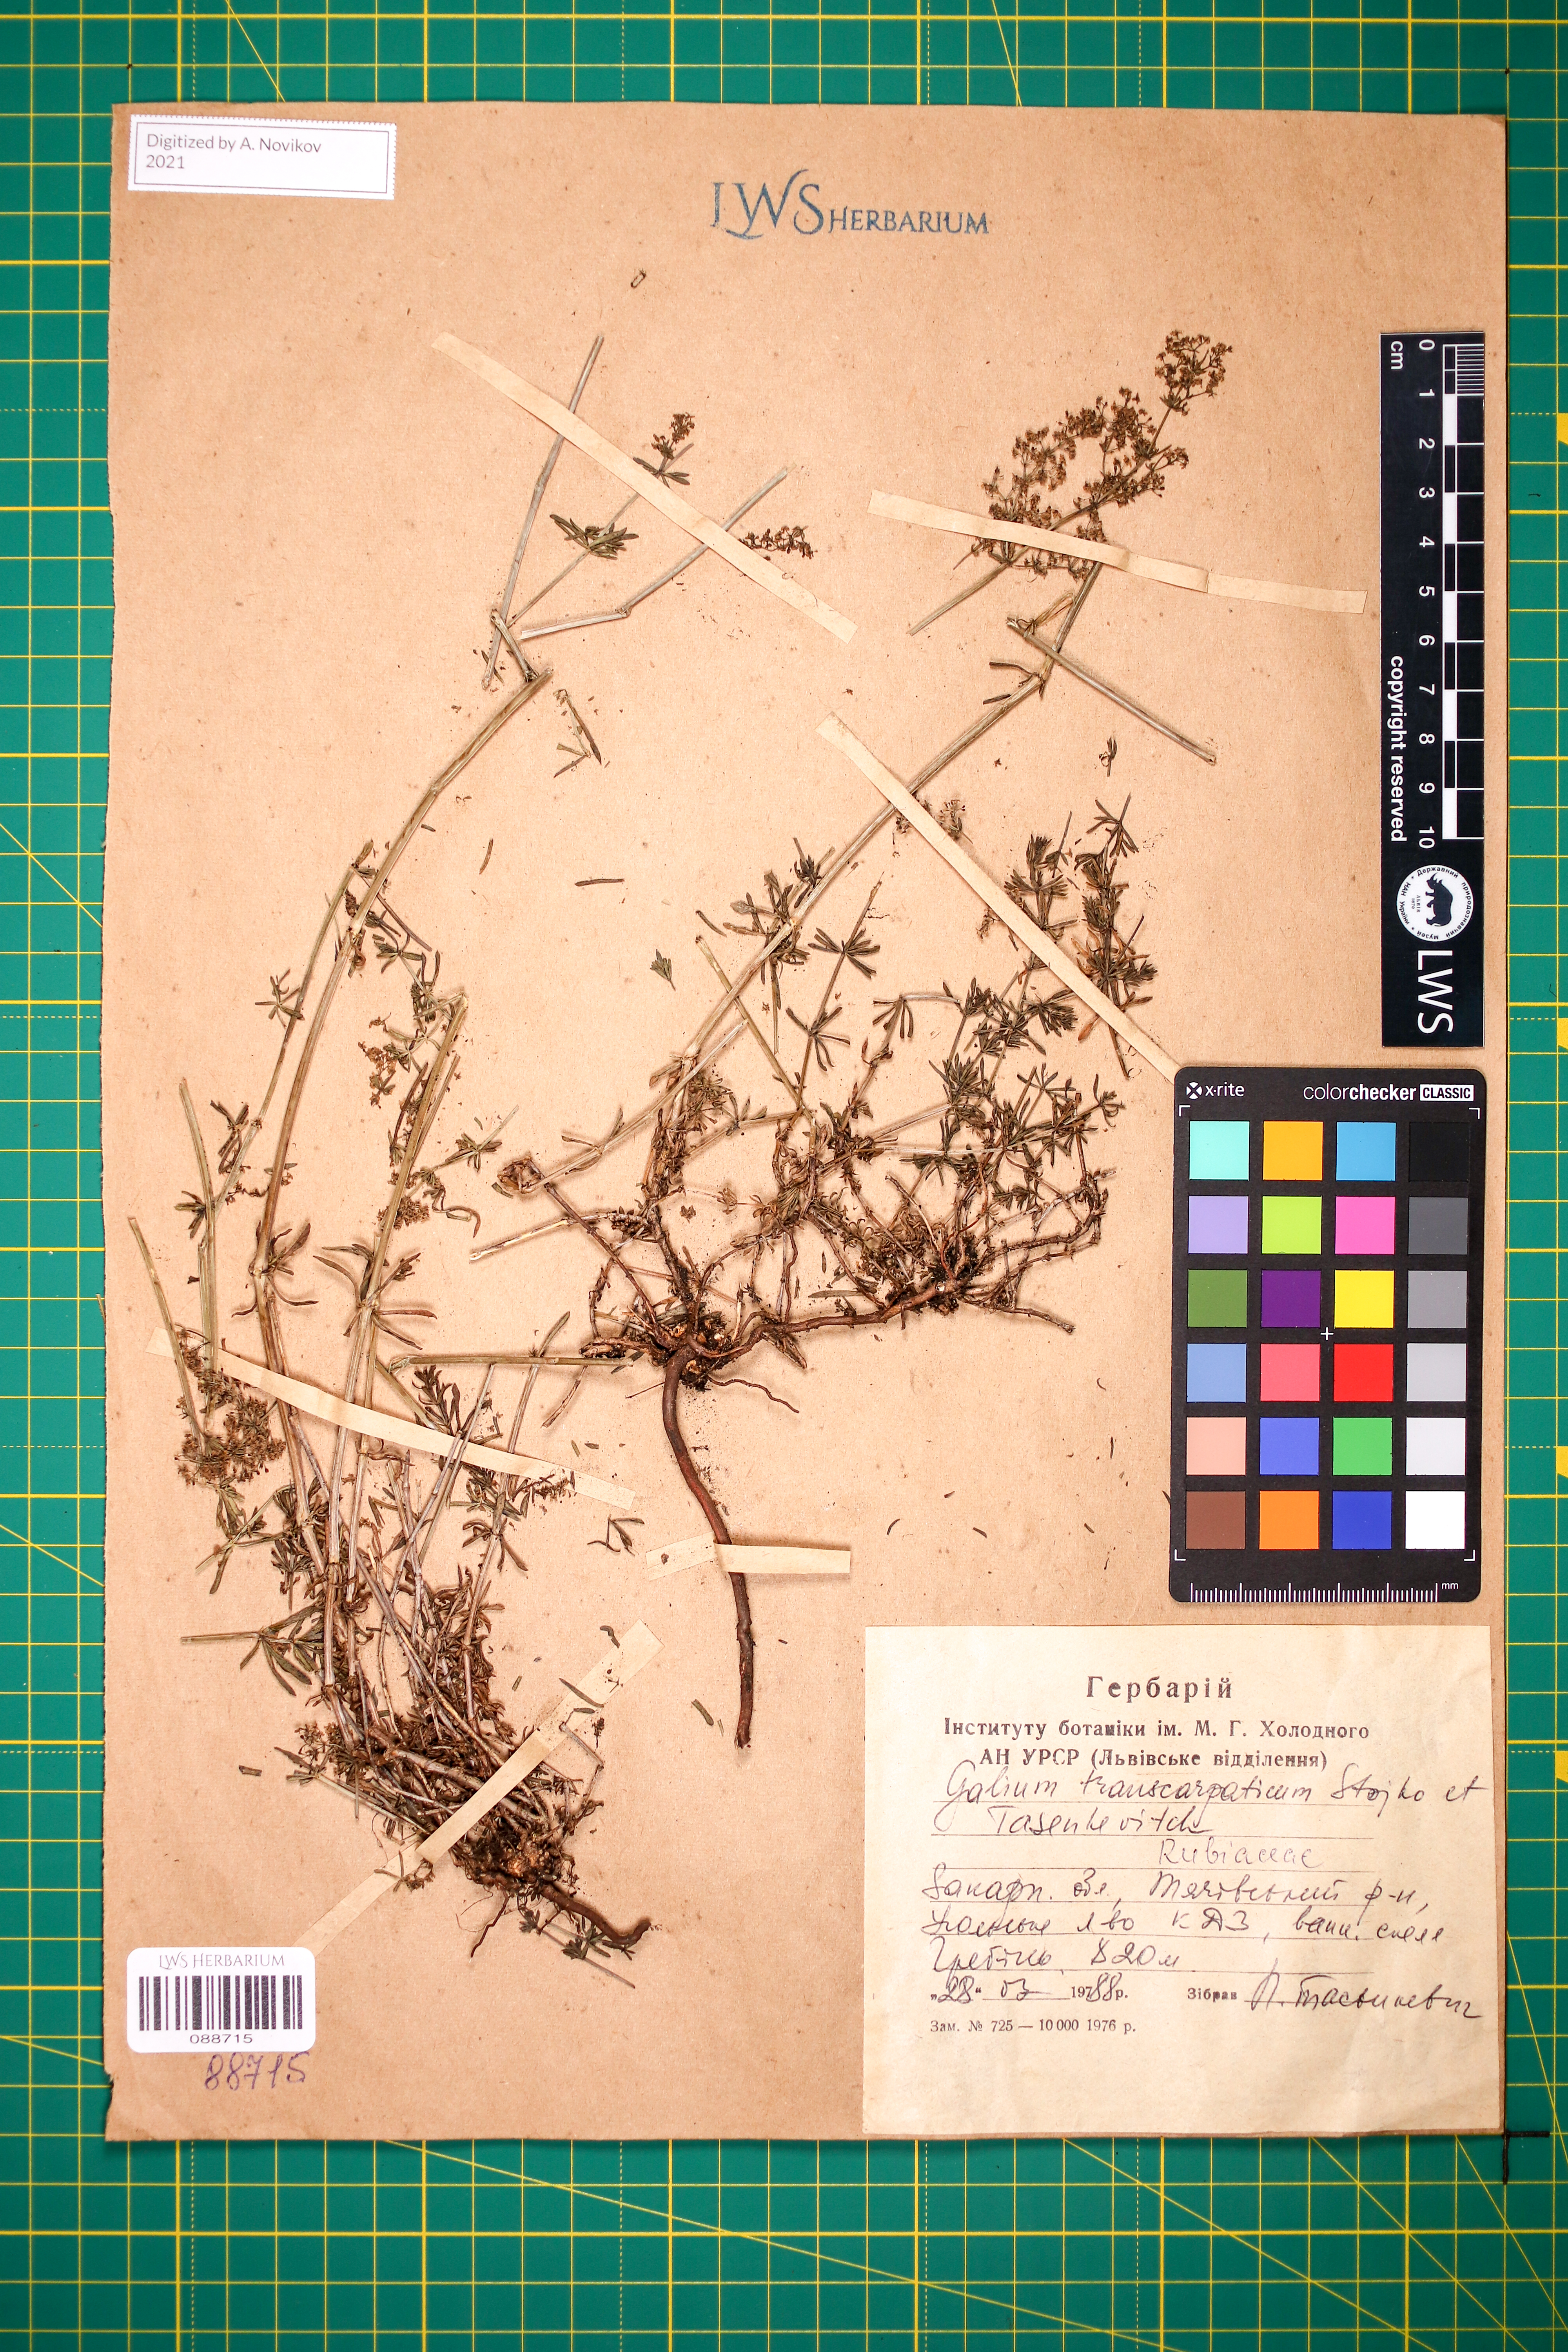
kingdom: Plantae
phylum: Tracheophyta
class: Magnoliopsida
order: Gentianales
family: Rubiaceae
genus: Galium
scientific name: Galium transcarpaticum
